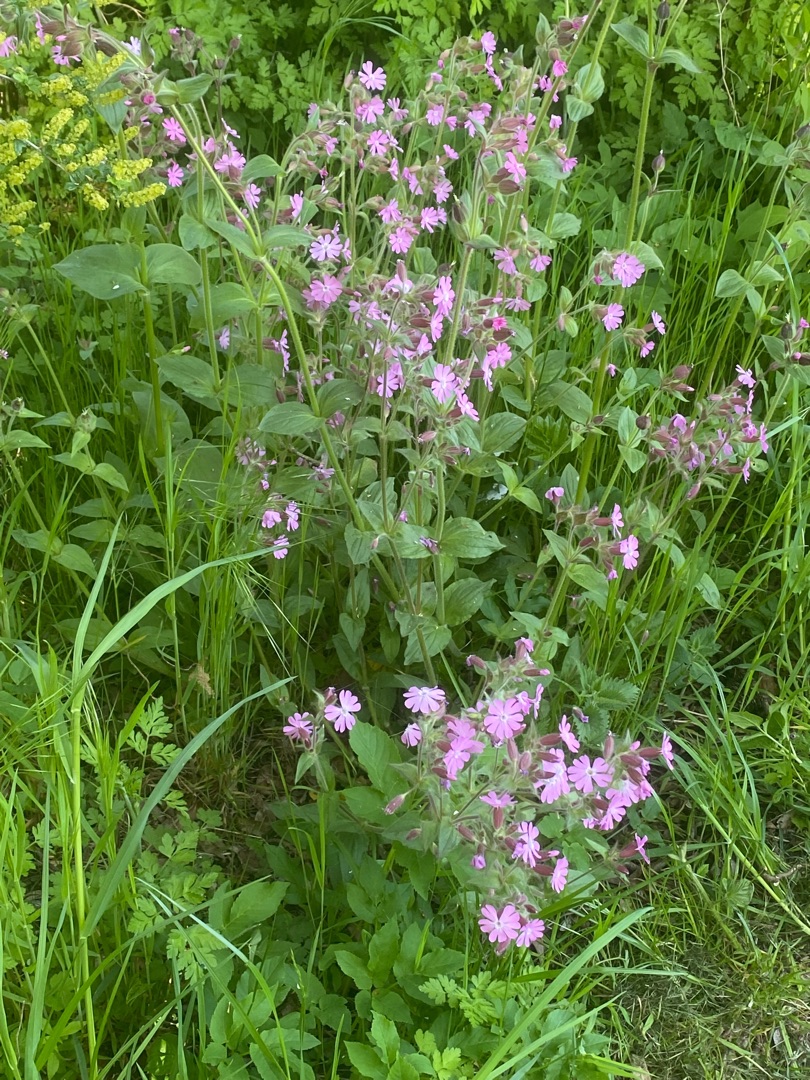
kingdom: Plantae
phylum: Tracheophyta
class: Magnoliopsida
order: Caryophyllales
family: Caryophyllaceae
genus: Silene
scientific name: Silene dioica
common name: Dagpragtstjerne
